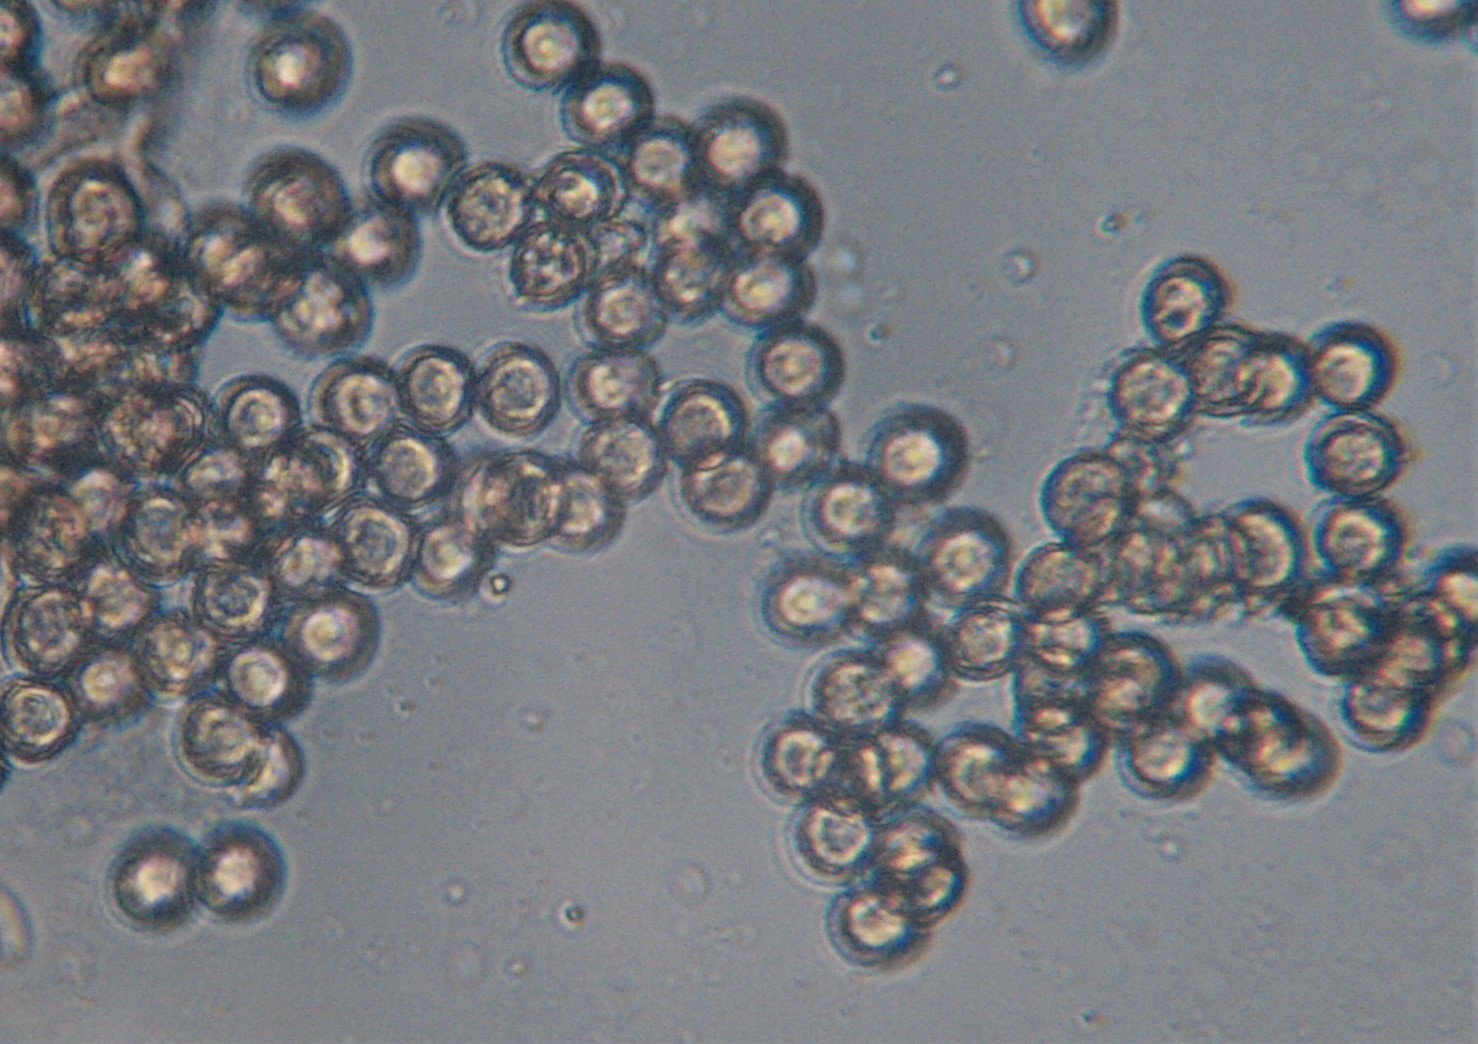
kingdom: Protozoa
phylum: Mycetozoa
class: Myxomycetes
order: Trichiales
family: Dictydiaethaliaceae
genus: Dictydiaethalium
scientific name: Dictydiaethalium plumbeum
